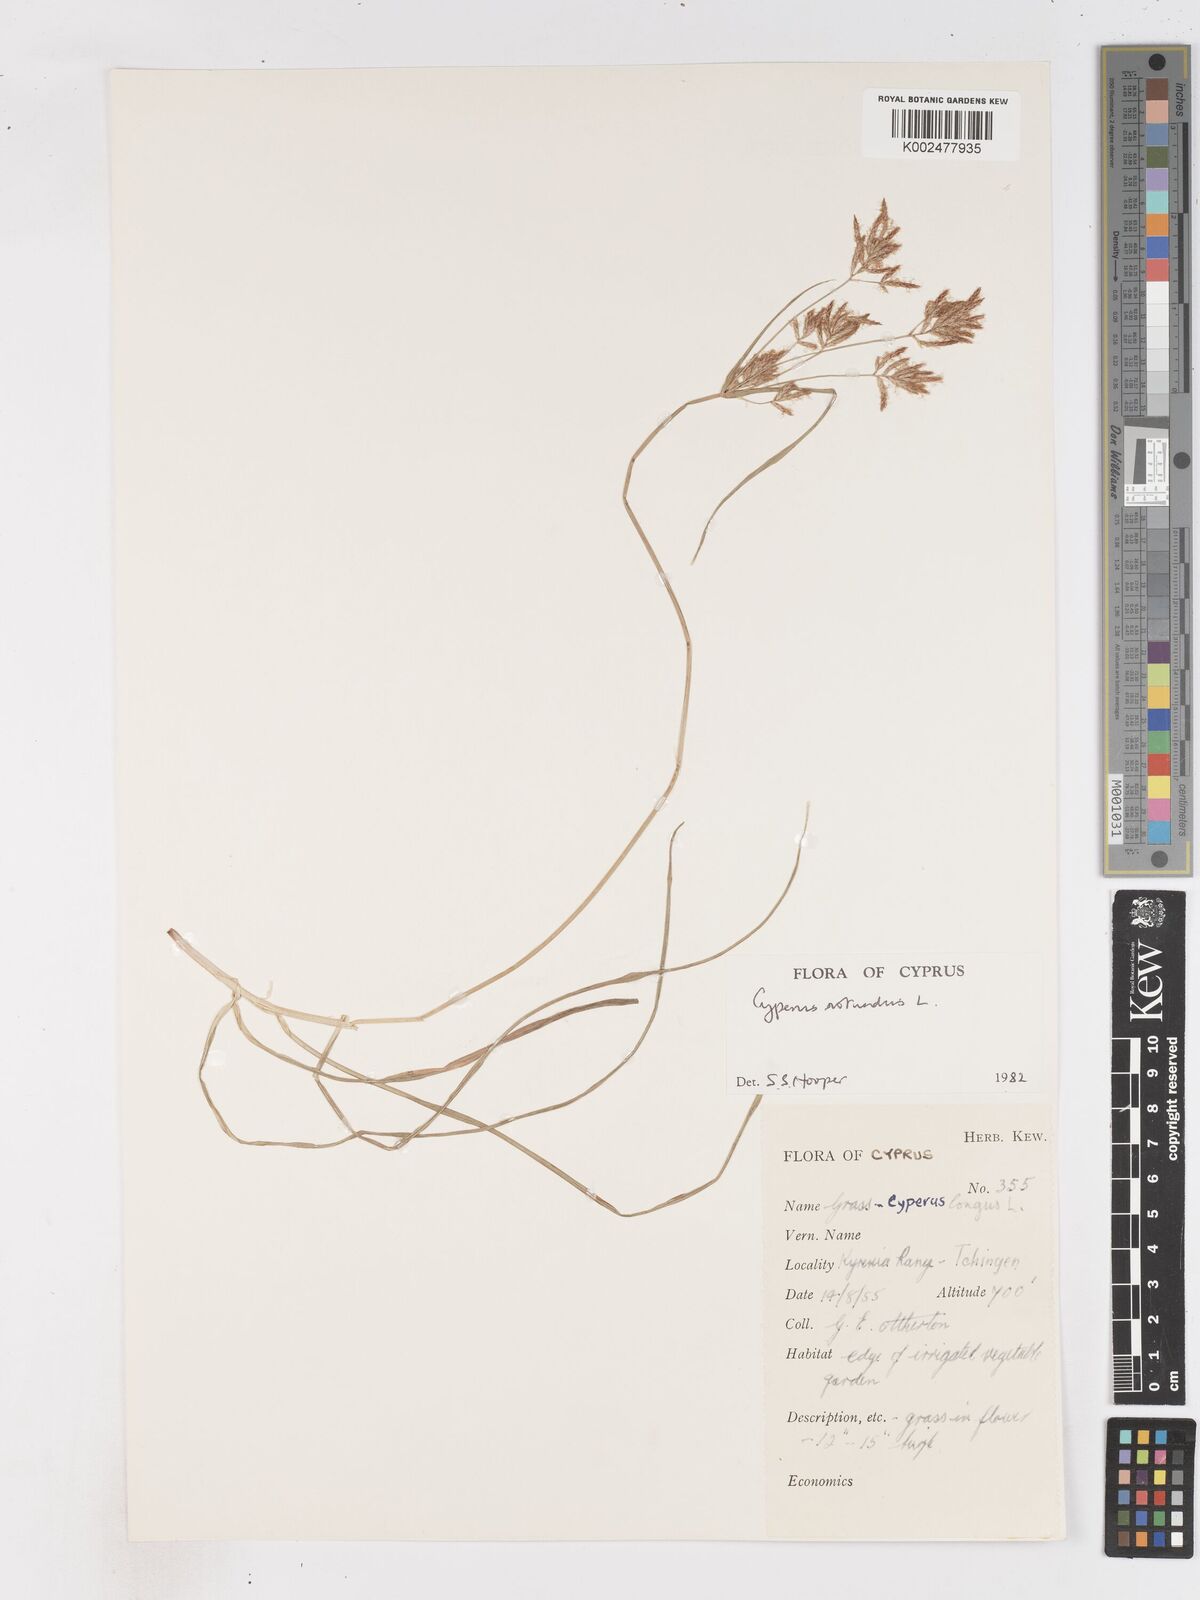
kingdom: Plantae
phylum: Tracheophyta
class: Liliopsida
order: Poales
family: Cyperaceae
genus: Cyperus
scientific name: Cyperus rotundus
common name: Nutgrass
